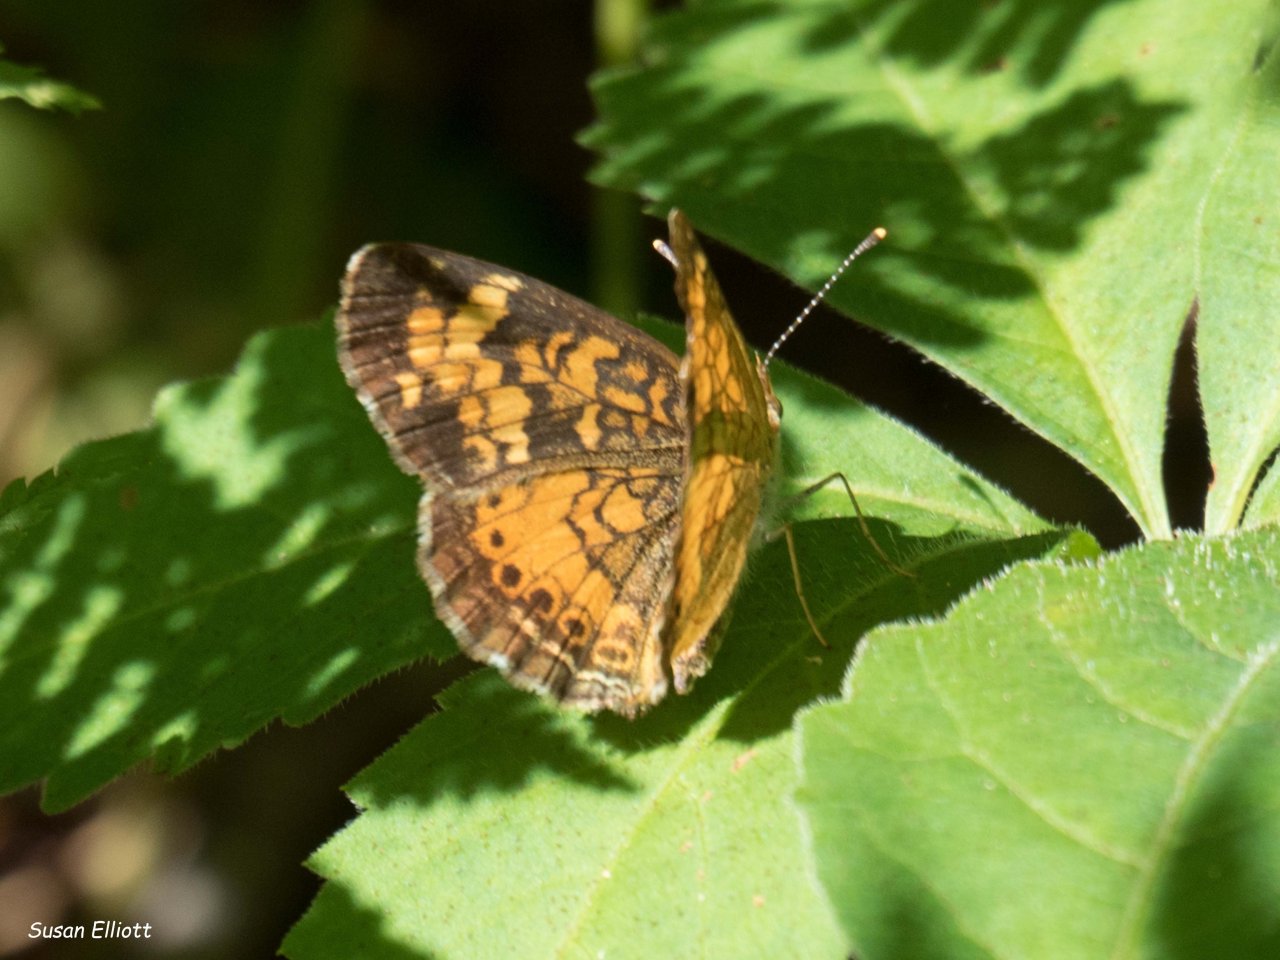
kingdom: Animalia
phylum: Arthropoda
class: Insecta
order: Lepidoptera
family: Nymphalidae
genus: Phyciodes
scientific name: Phyciodes
